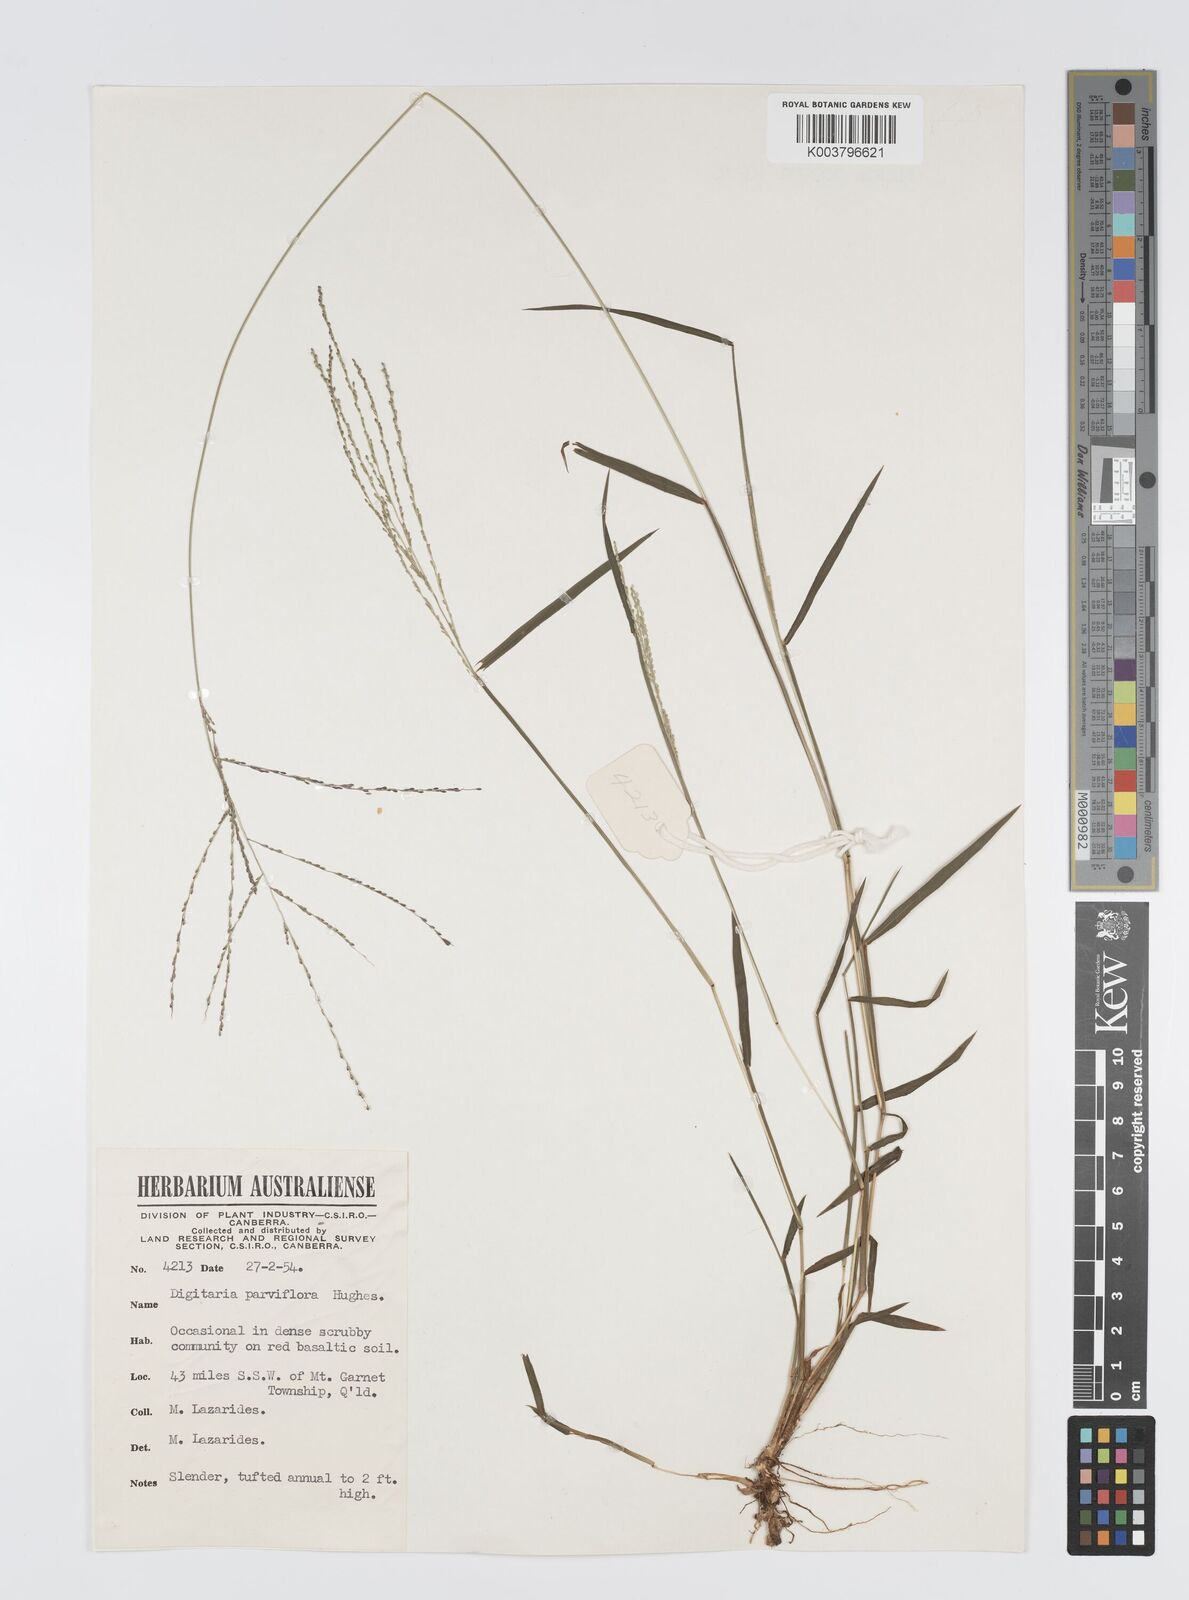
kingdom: Plantae
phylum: Tracheophyta
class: Liliopsida
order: Poales
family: Poaceae
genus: Digitaria
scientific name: Digitaria parviflora
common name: Small-flower finger grass
